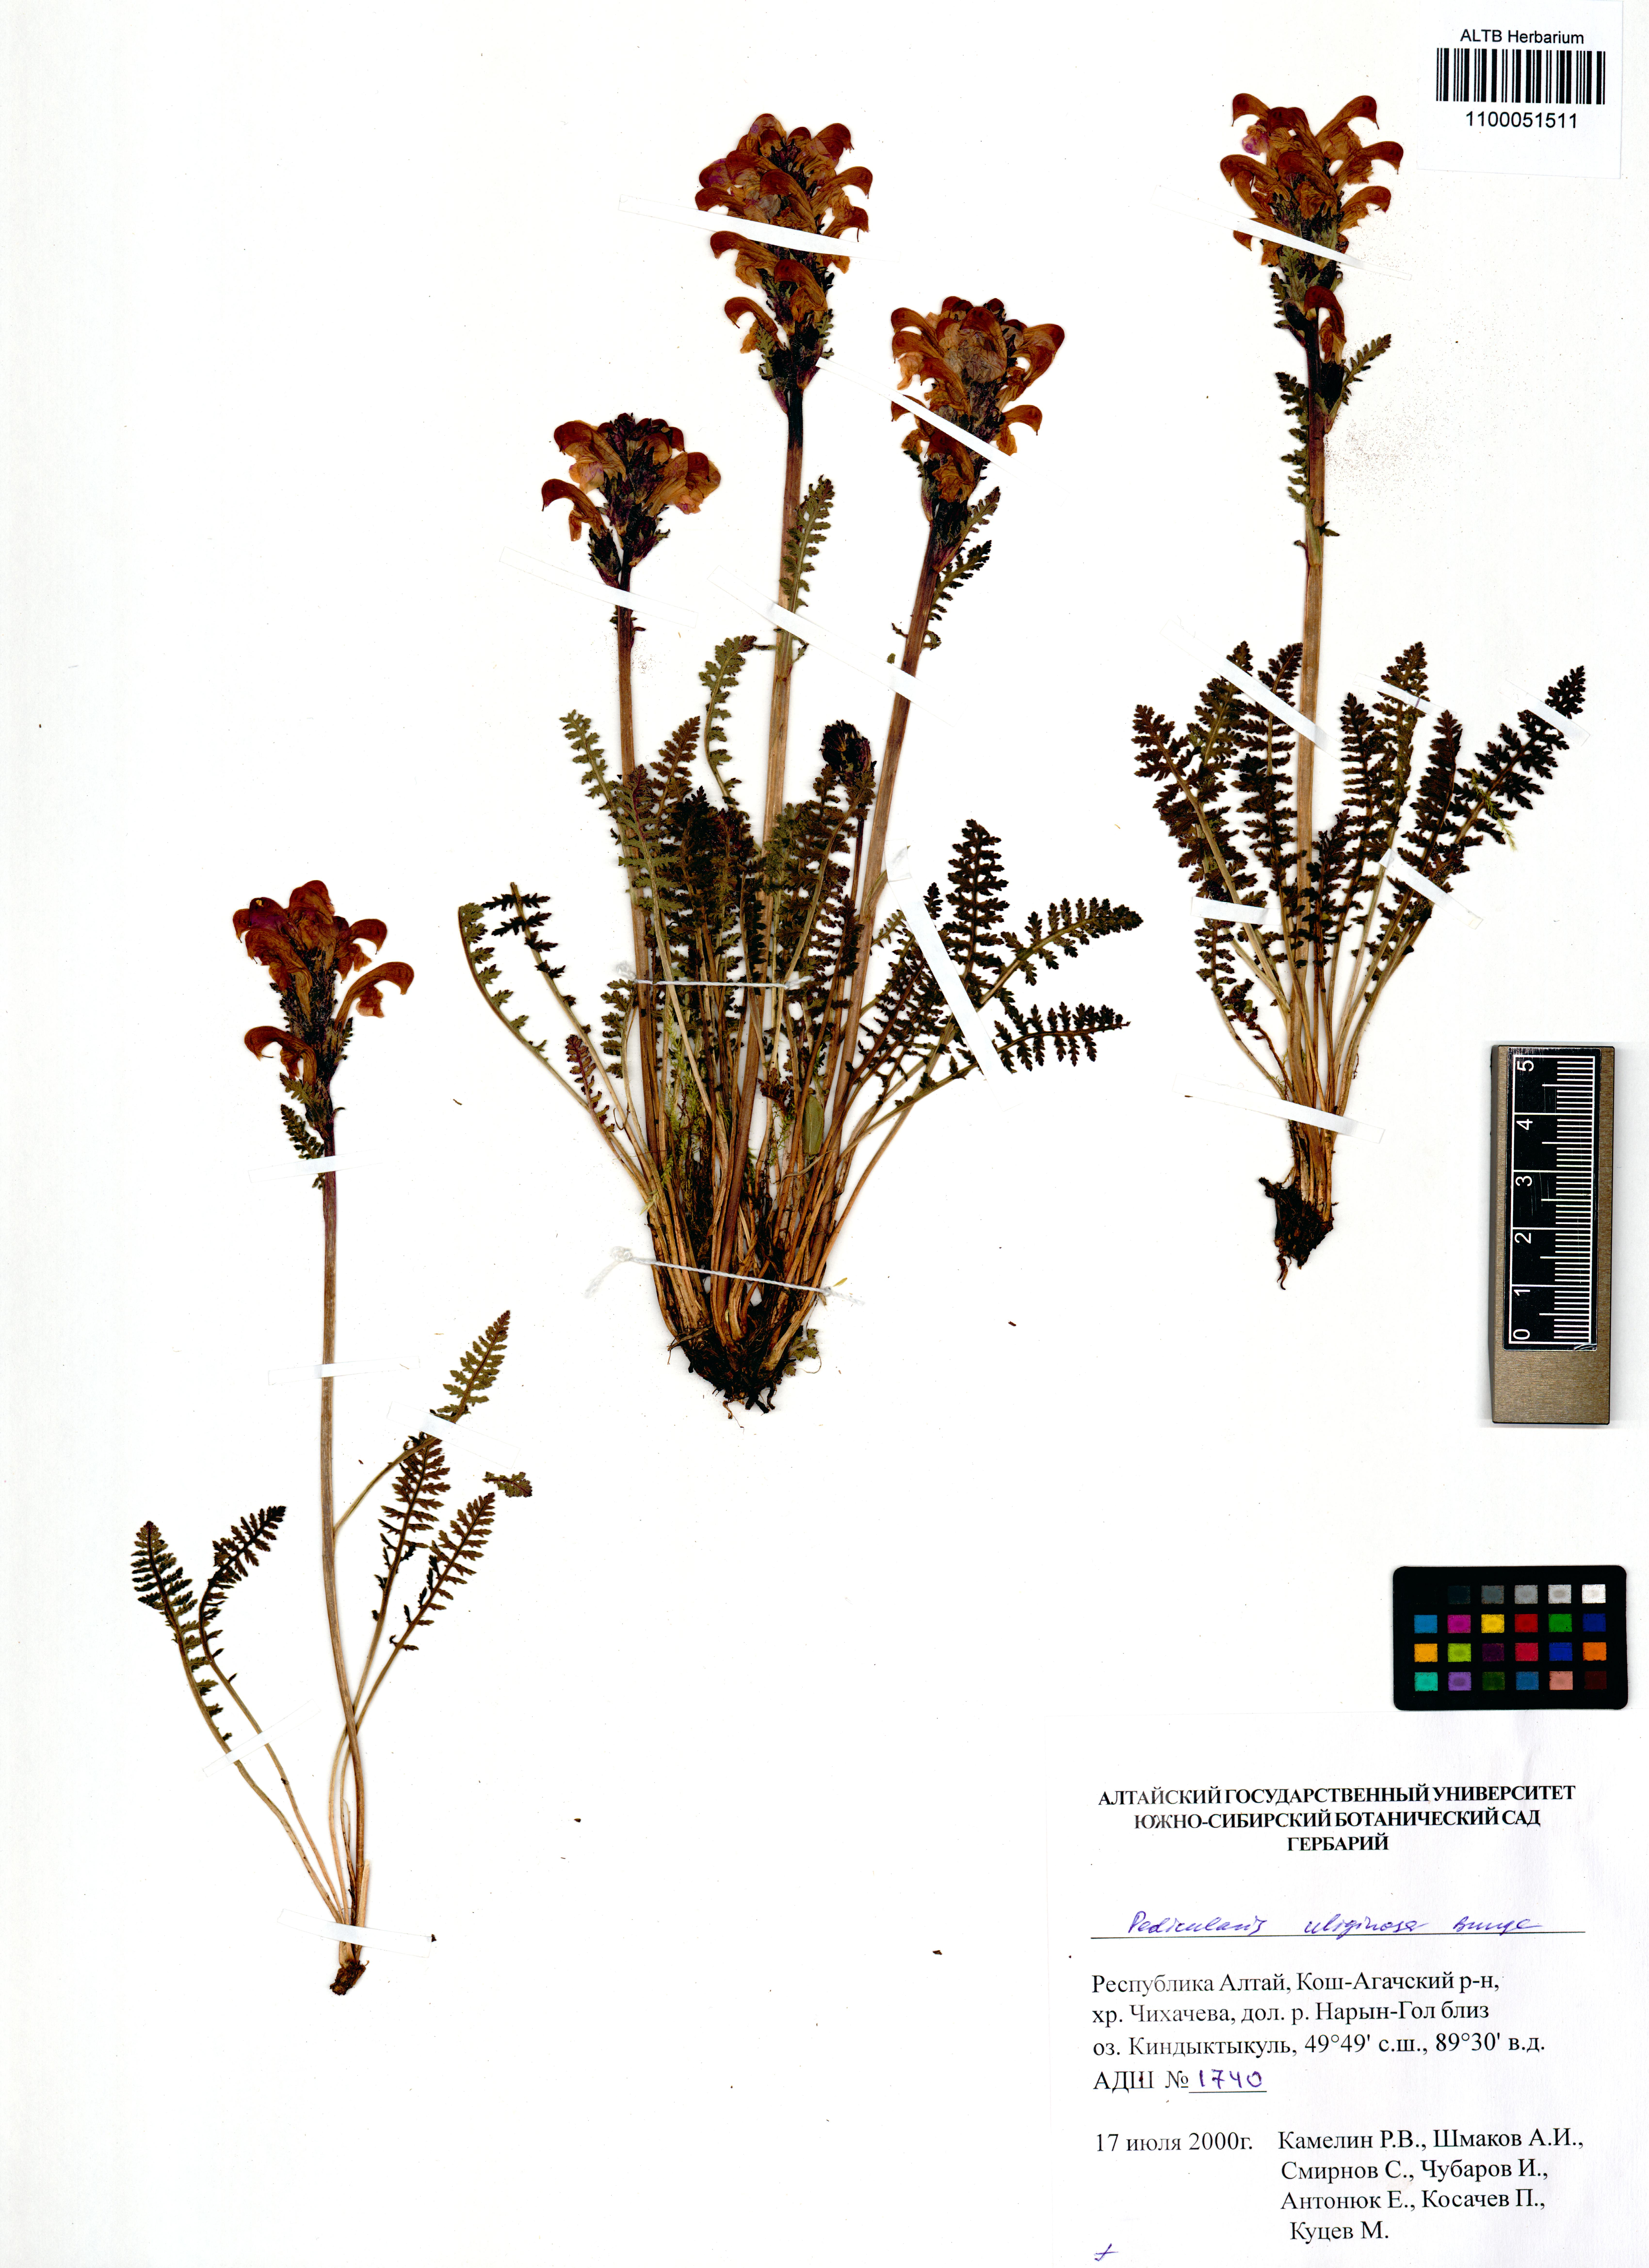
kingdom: Plantae
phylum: Tracheophyta
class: Magnoliopsida
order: Lamiales
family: Orobanchaceae
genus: Pedicularis
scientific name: Pedicularis uliginosa
